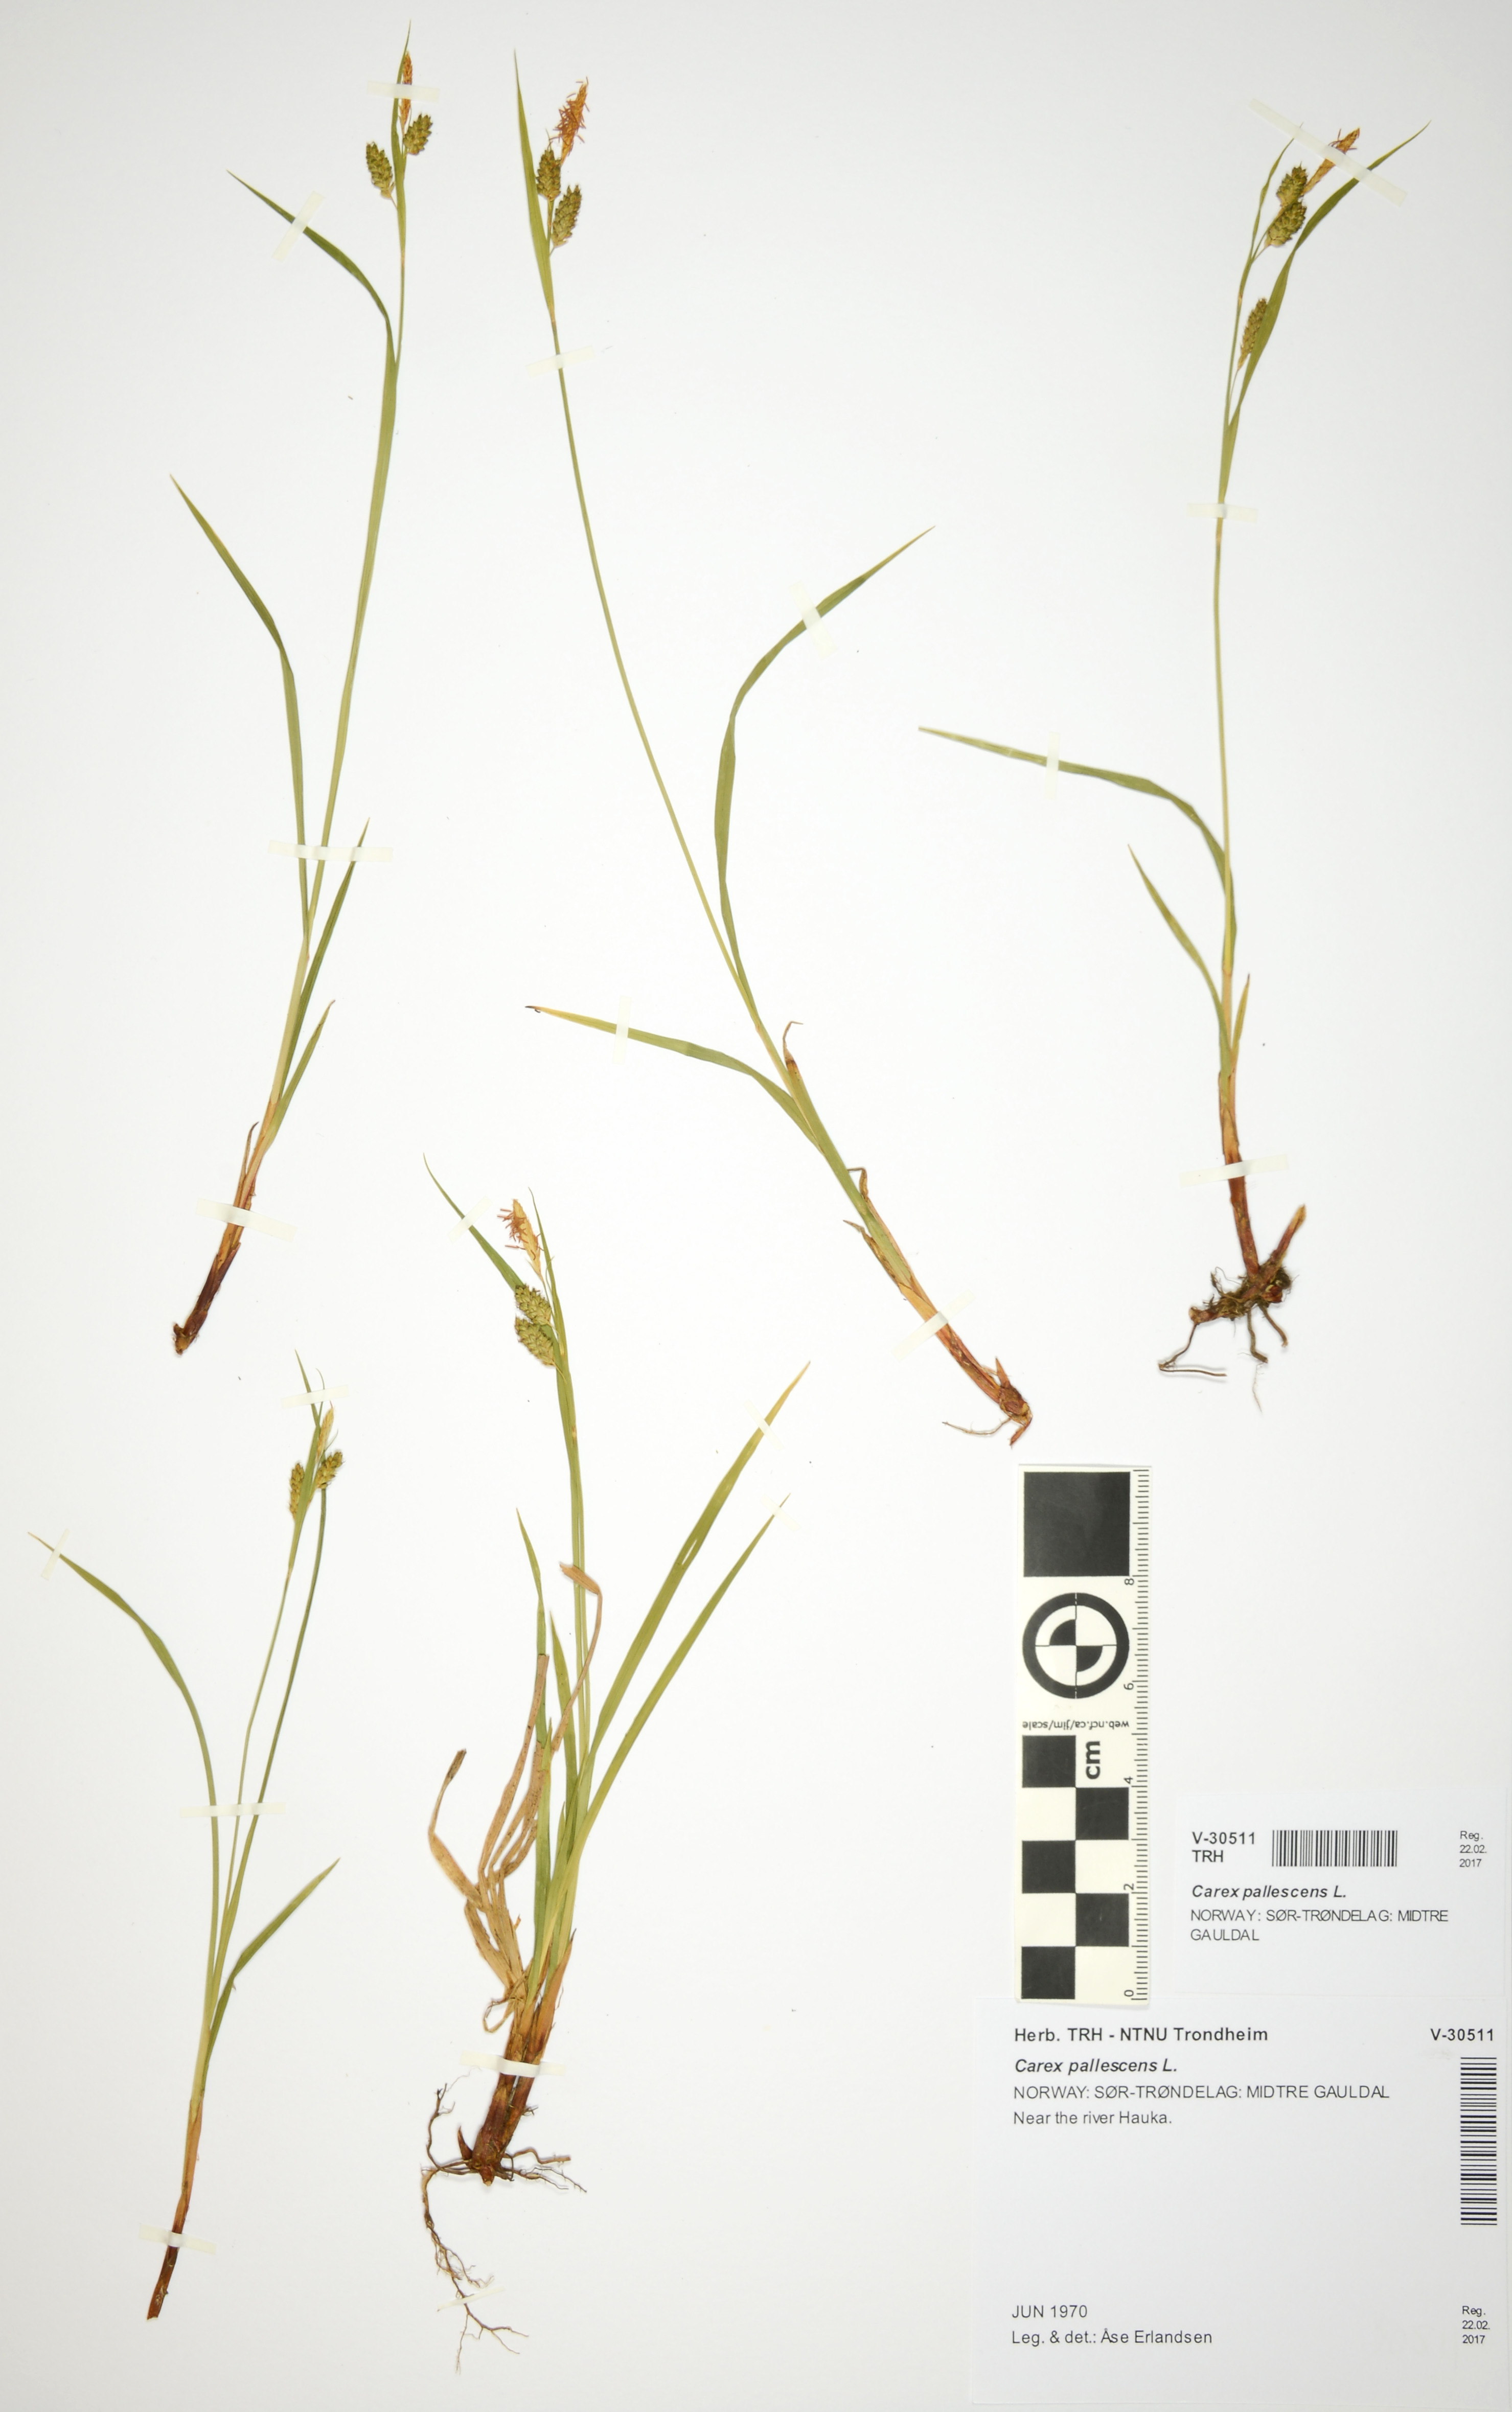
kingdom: Plantae
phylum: Tracheophyta
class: Liliopsida
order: Poales
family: Cyperaceae
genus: Carex
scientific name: Carex pallescens
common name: Pale sedge
